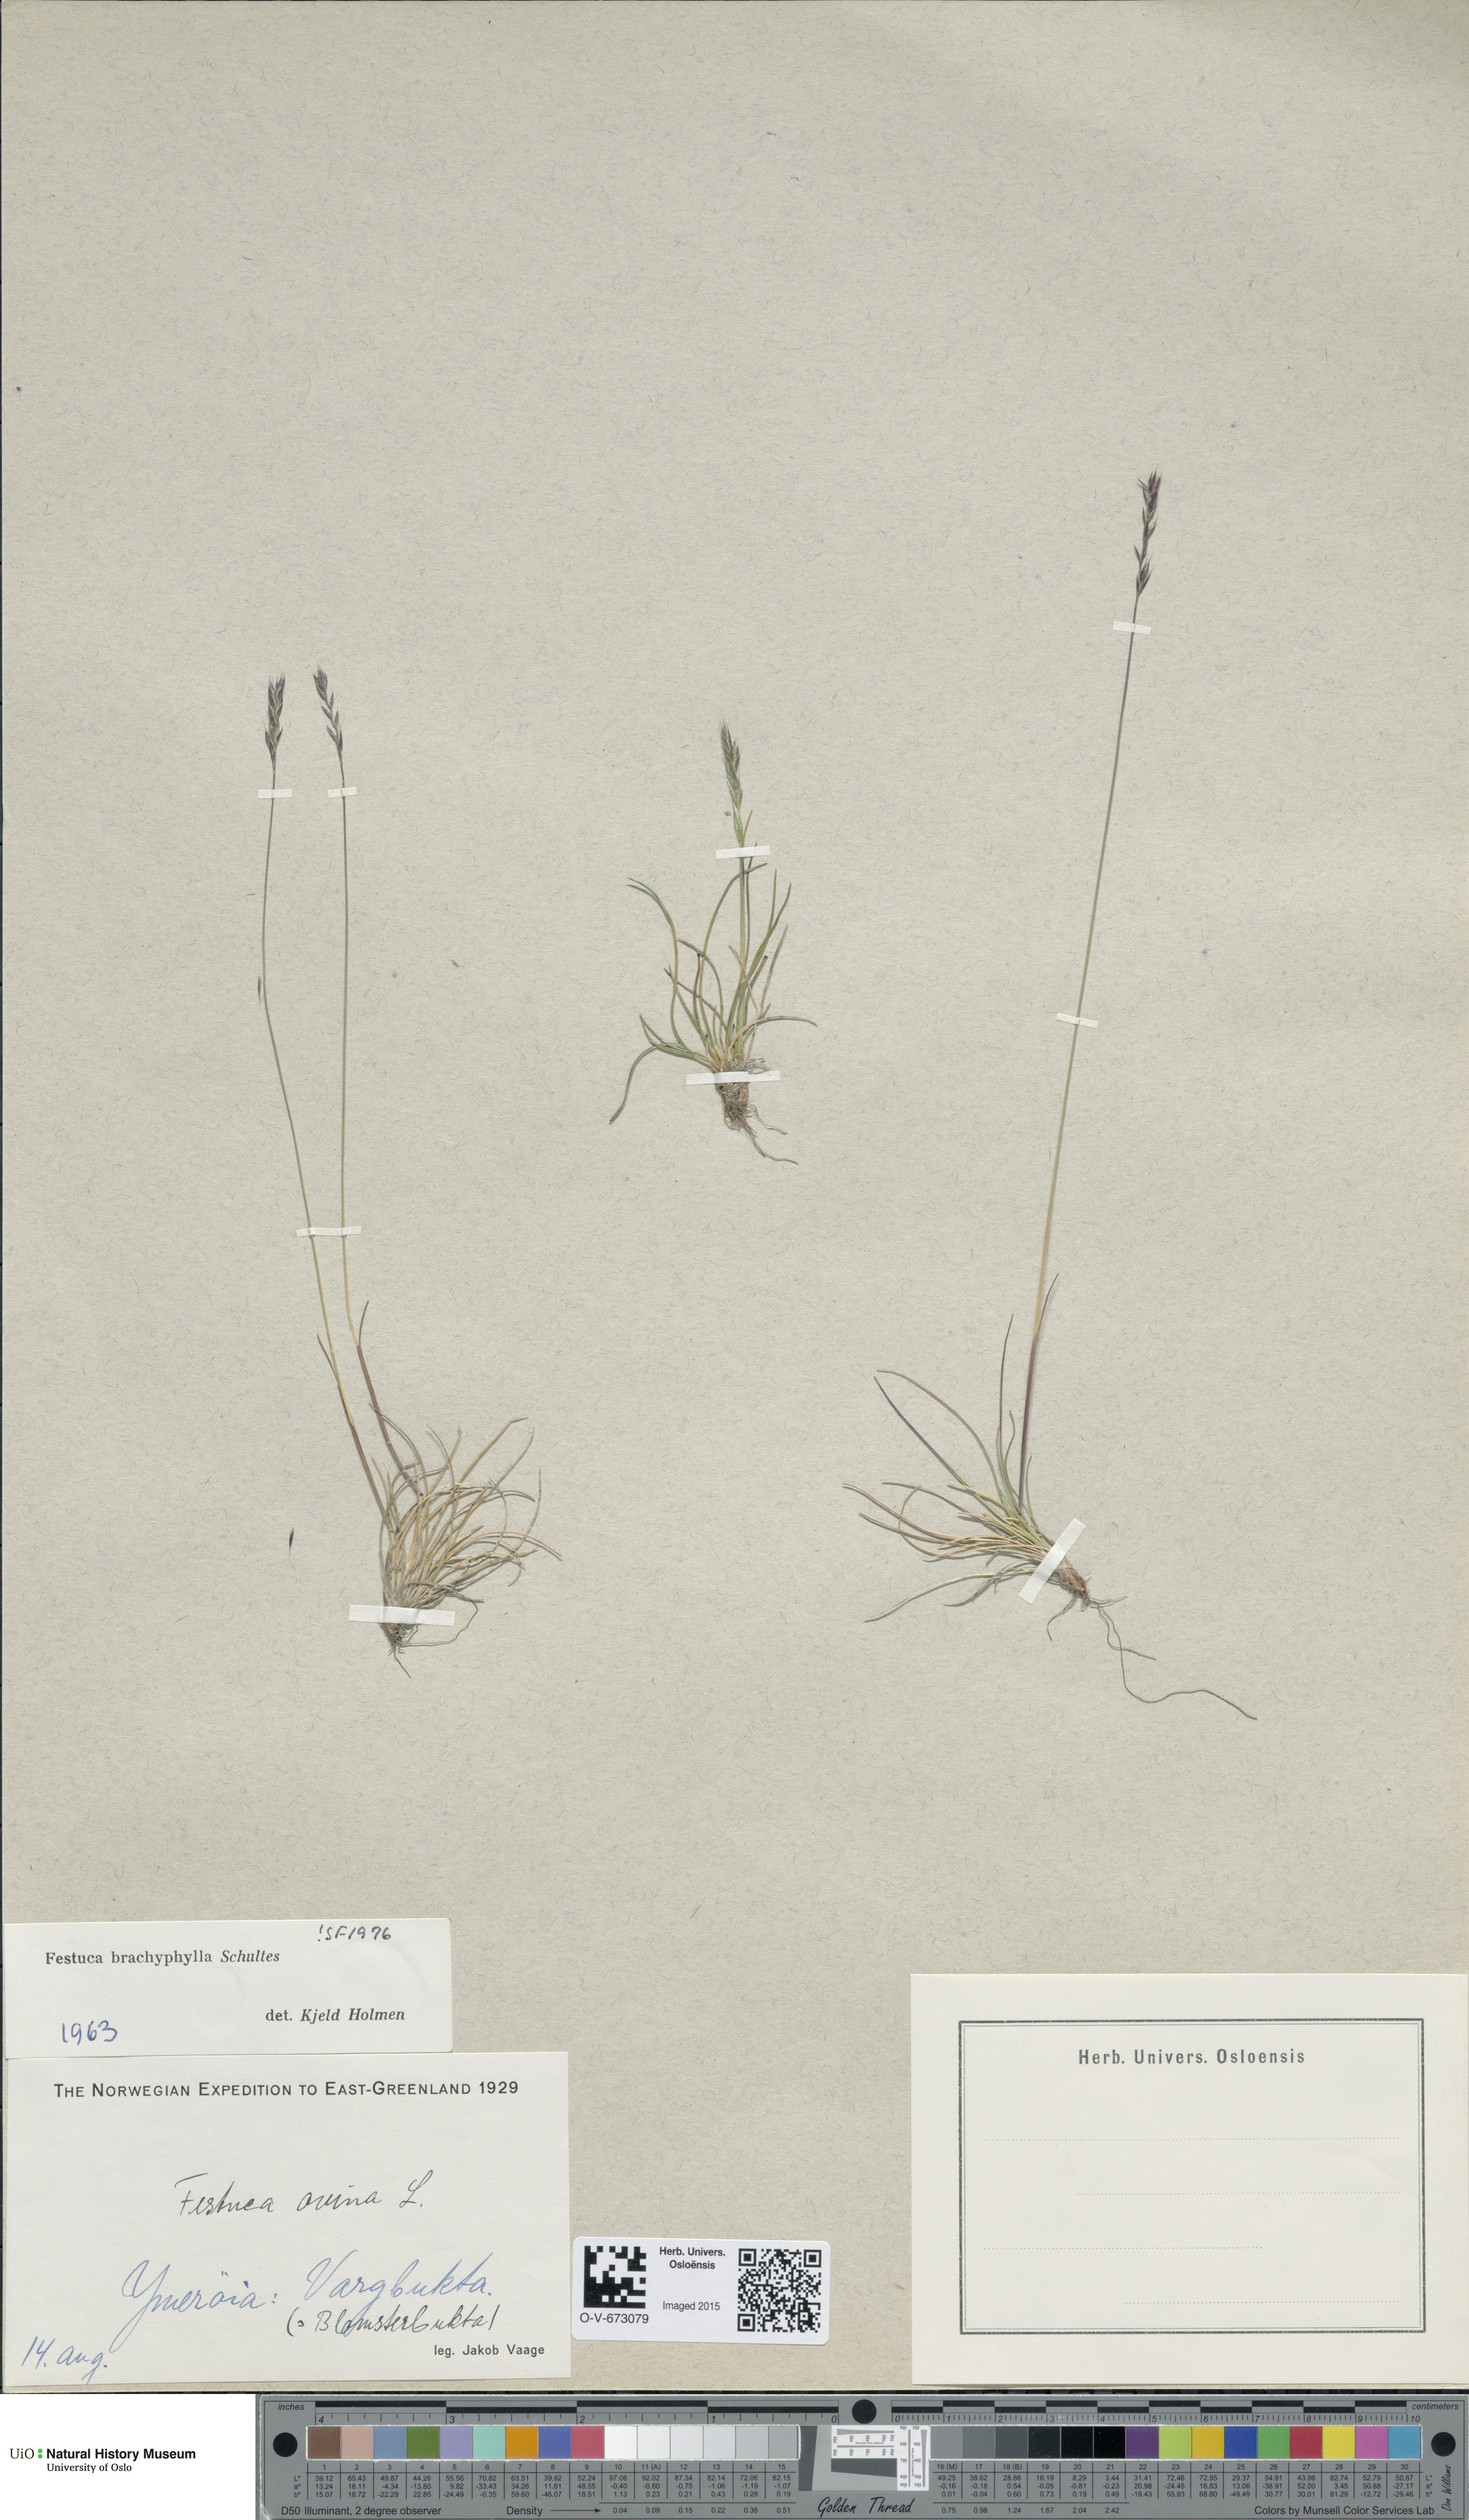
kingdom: Plantae
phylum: Tracheophyta
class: Liliopsida
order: Poales
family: Poaceae
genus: Festuca
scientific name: Festuca brachyphylla
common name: Alpine fescue
